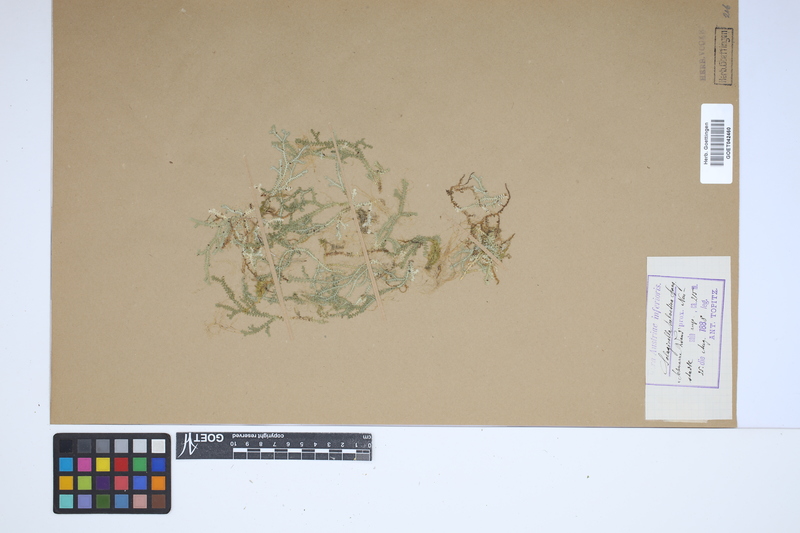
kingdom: Plantae
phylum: Tracheophyta
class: Lycopodiopsida
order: Selaginellales
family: Selaginellaceae
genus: Selaginella
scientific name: Selaginella helvetica
